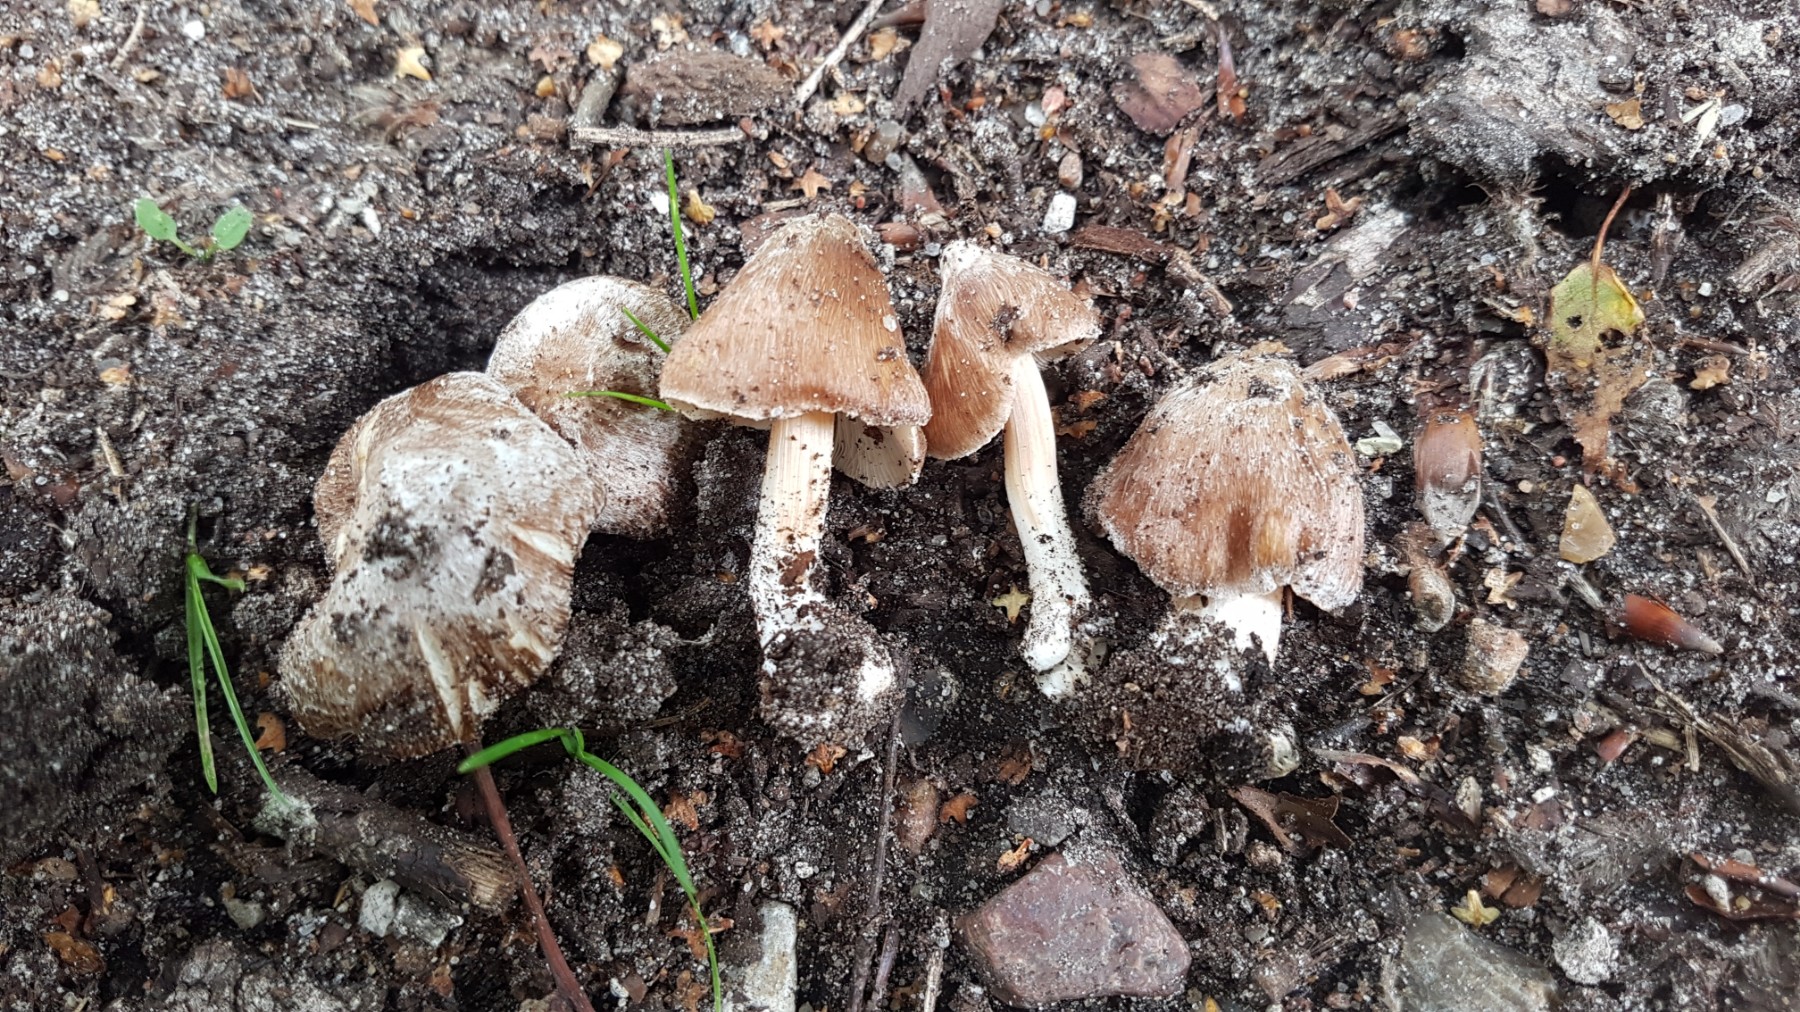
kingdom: Fungi
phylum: Basidiomycota
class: Agaricomycetes
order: Agaricales
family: Inocybaceae
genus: Inosperma
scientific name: Inosperma maculatum
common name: plettet trævlhat
